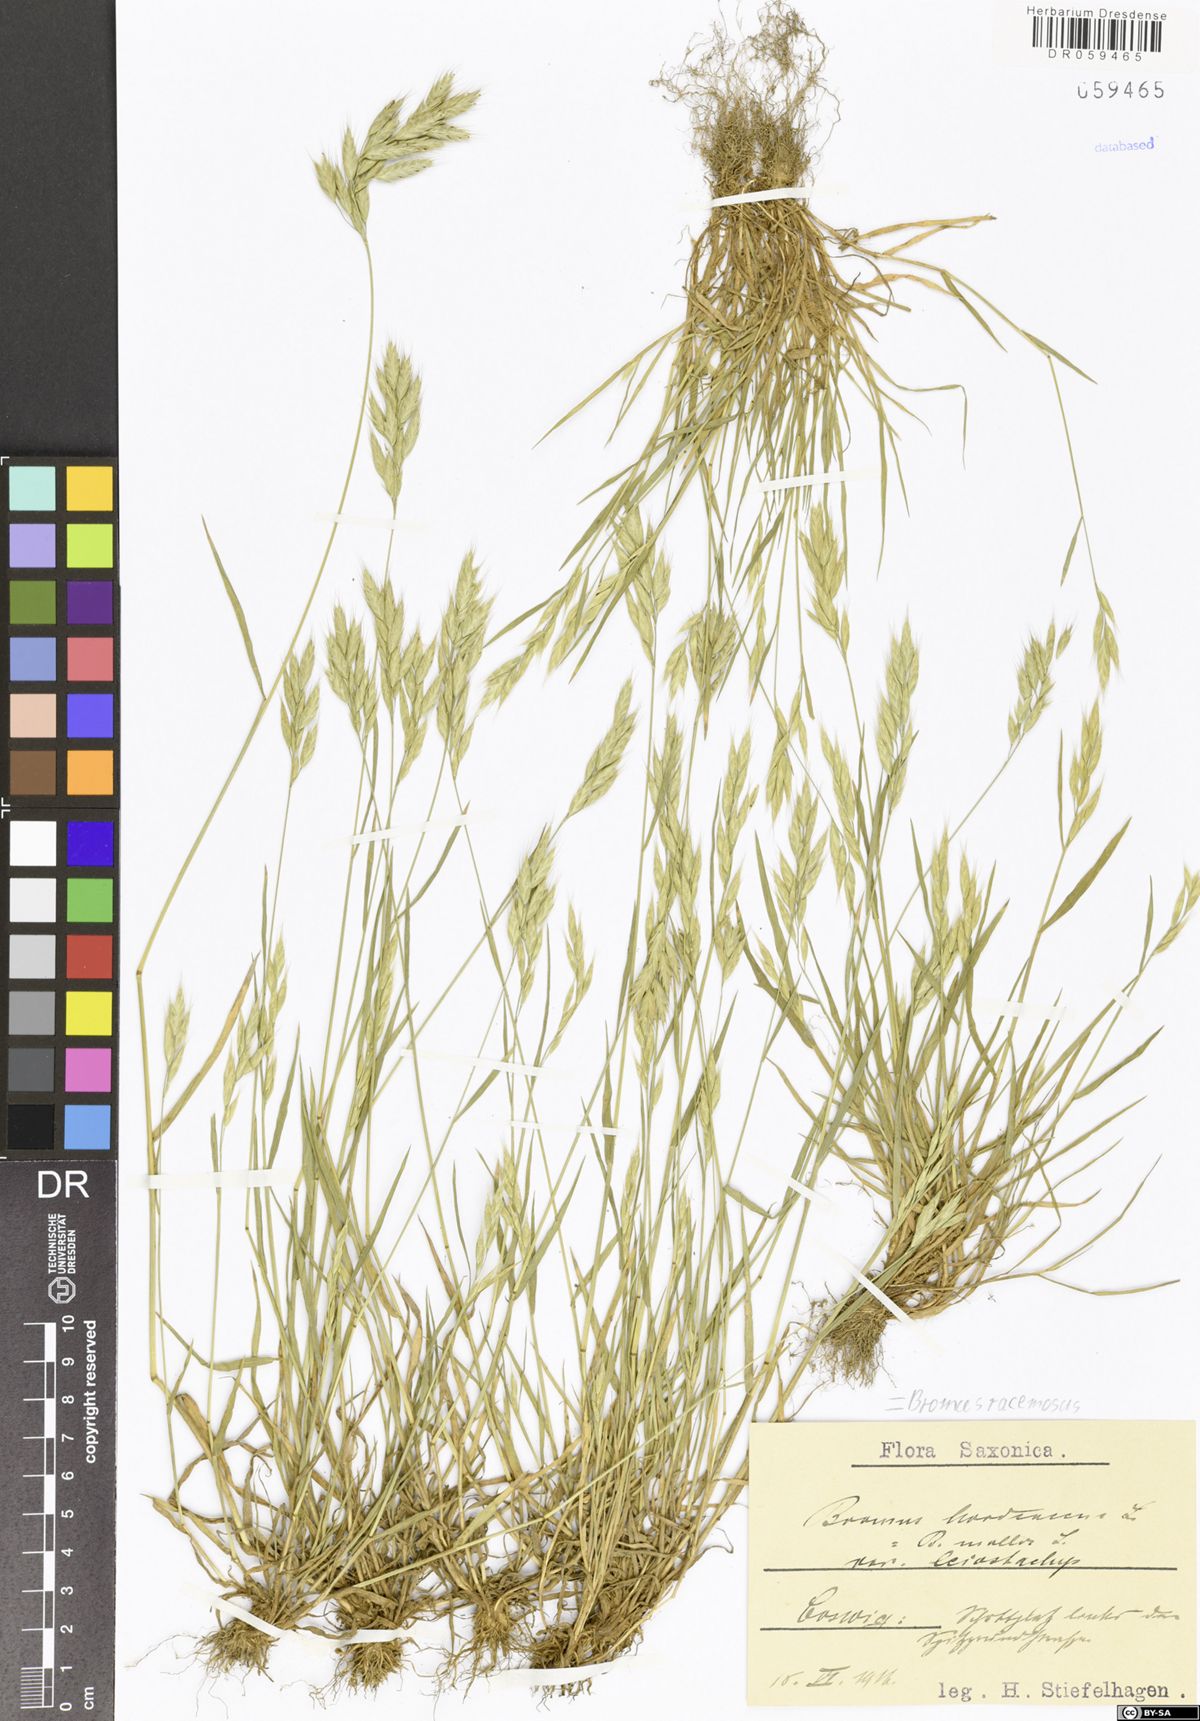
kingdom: Plantae
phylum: Tracheophyta
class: Liliopsida
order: Poales
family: Poaceae
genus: Bromus
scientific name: Bromus racemosus
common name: Bald brome
